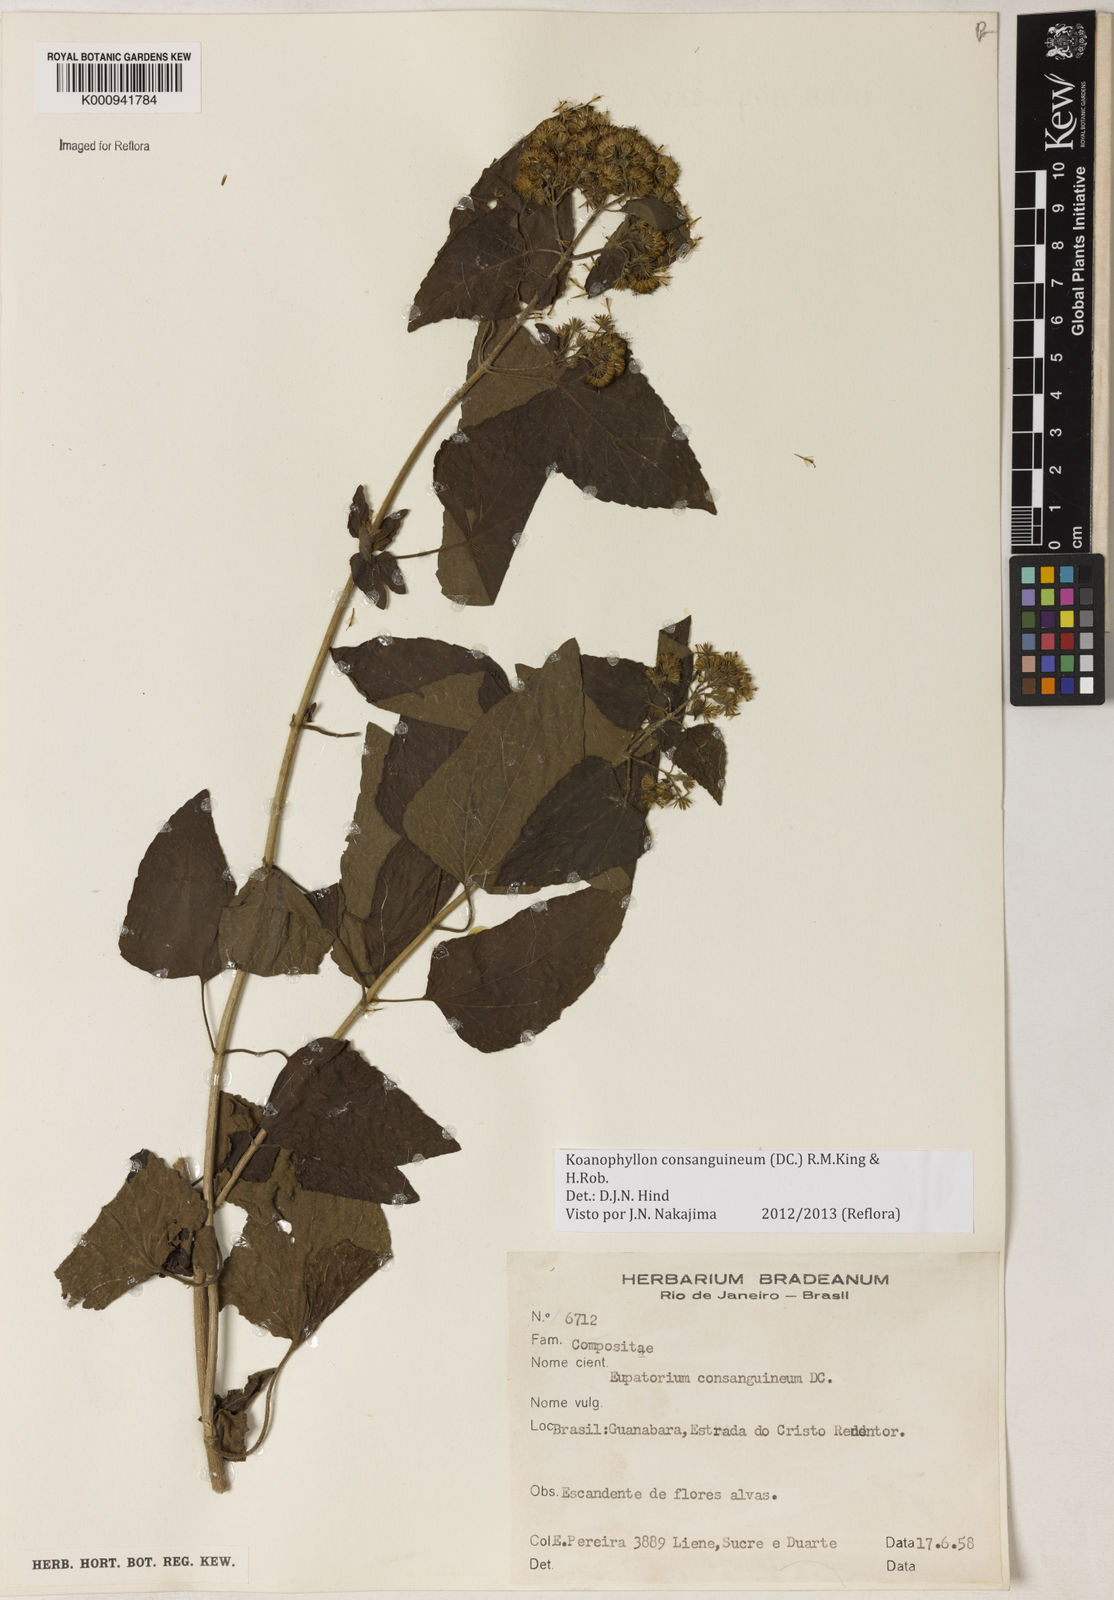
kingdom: Plantae
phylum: Tracheophyta
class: Magnoliopsida
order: Asterales
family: Asteraceae
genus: Koanophyllon
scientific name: Koanophyllon consanguineum
